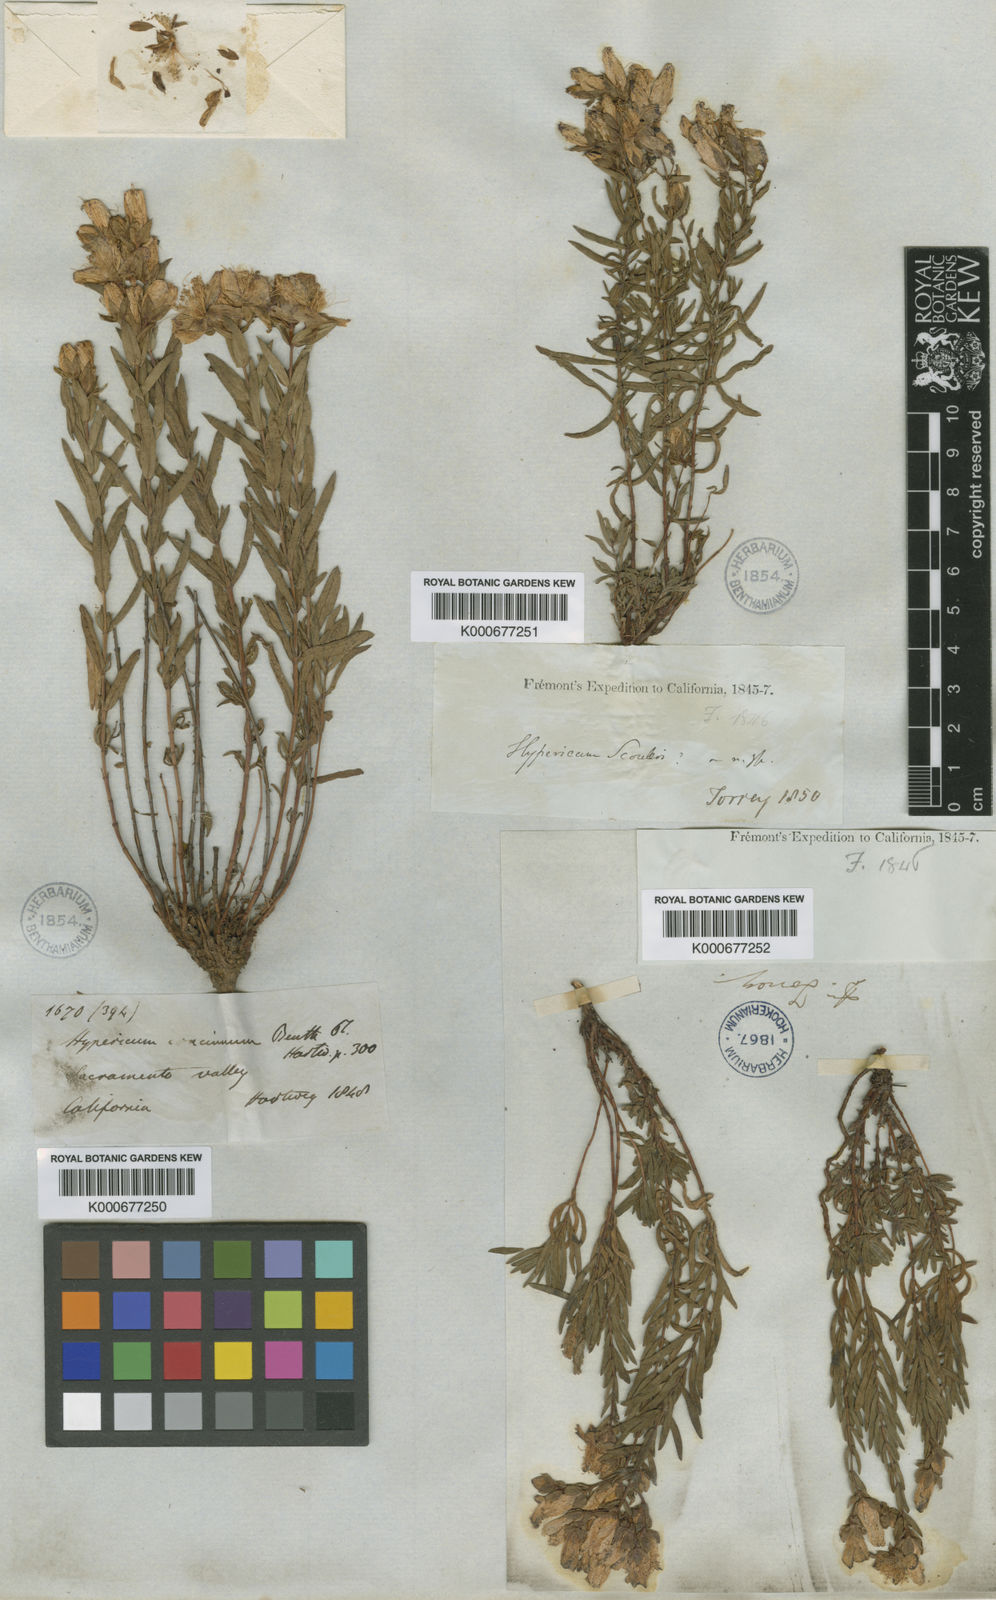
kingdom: Plantae
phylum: Tracheophyta
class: Magnoliopsida
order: Malpighiales
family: Hypericaceae
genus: Hypericum
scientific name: Hypericum concinnum
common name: Gold-wire
